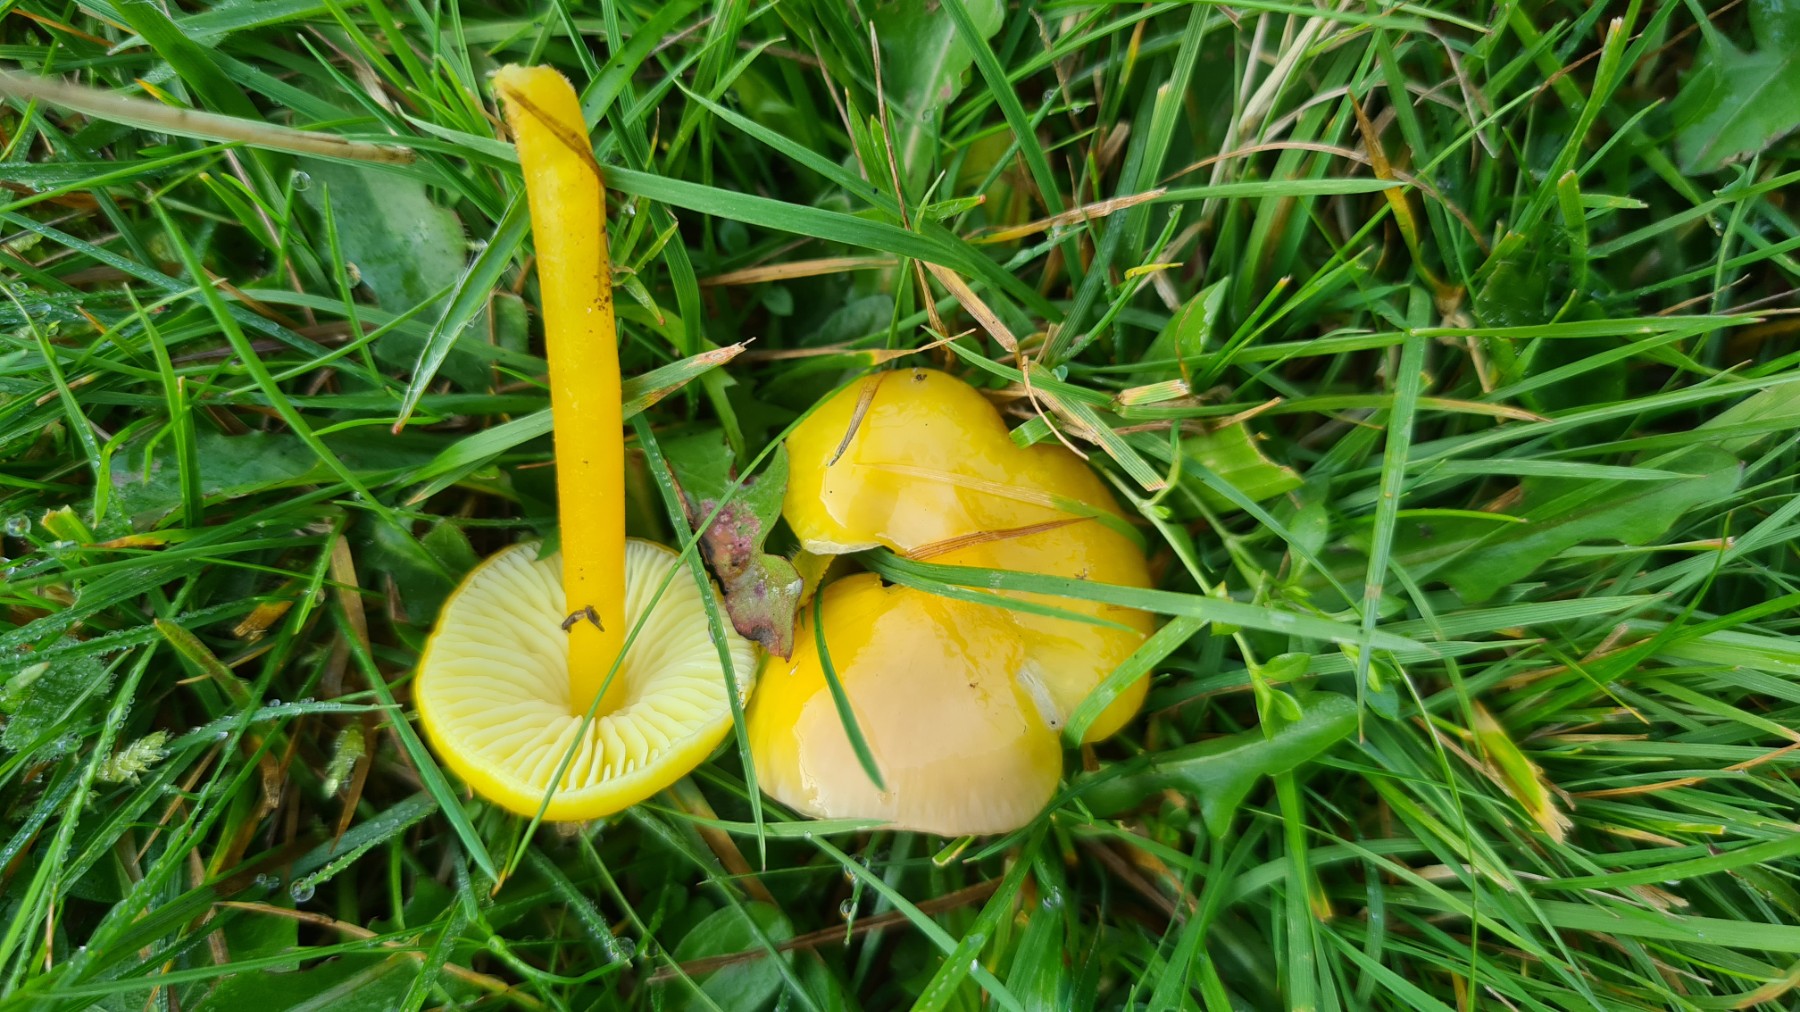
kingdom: Fungi
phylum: Basidiomycota
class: Agaricomycetes
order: Agaricales
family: Hygrophoraceae
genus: Hygrocybe
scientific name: Hygrocybe chlorophana
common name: gul vokshat
